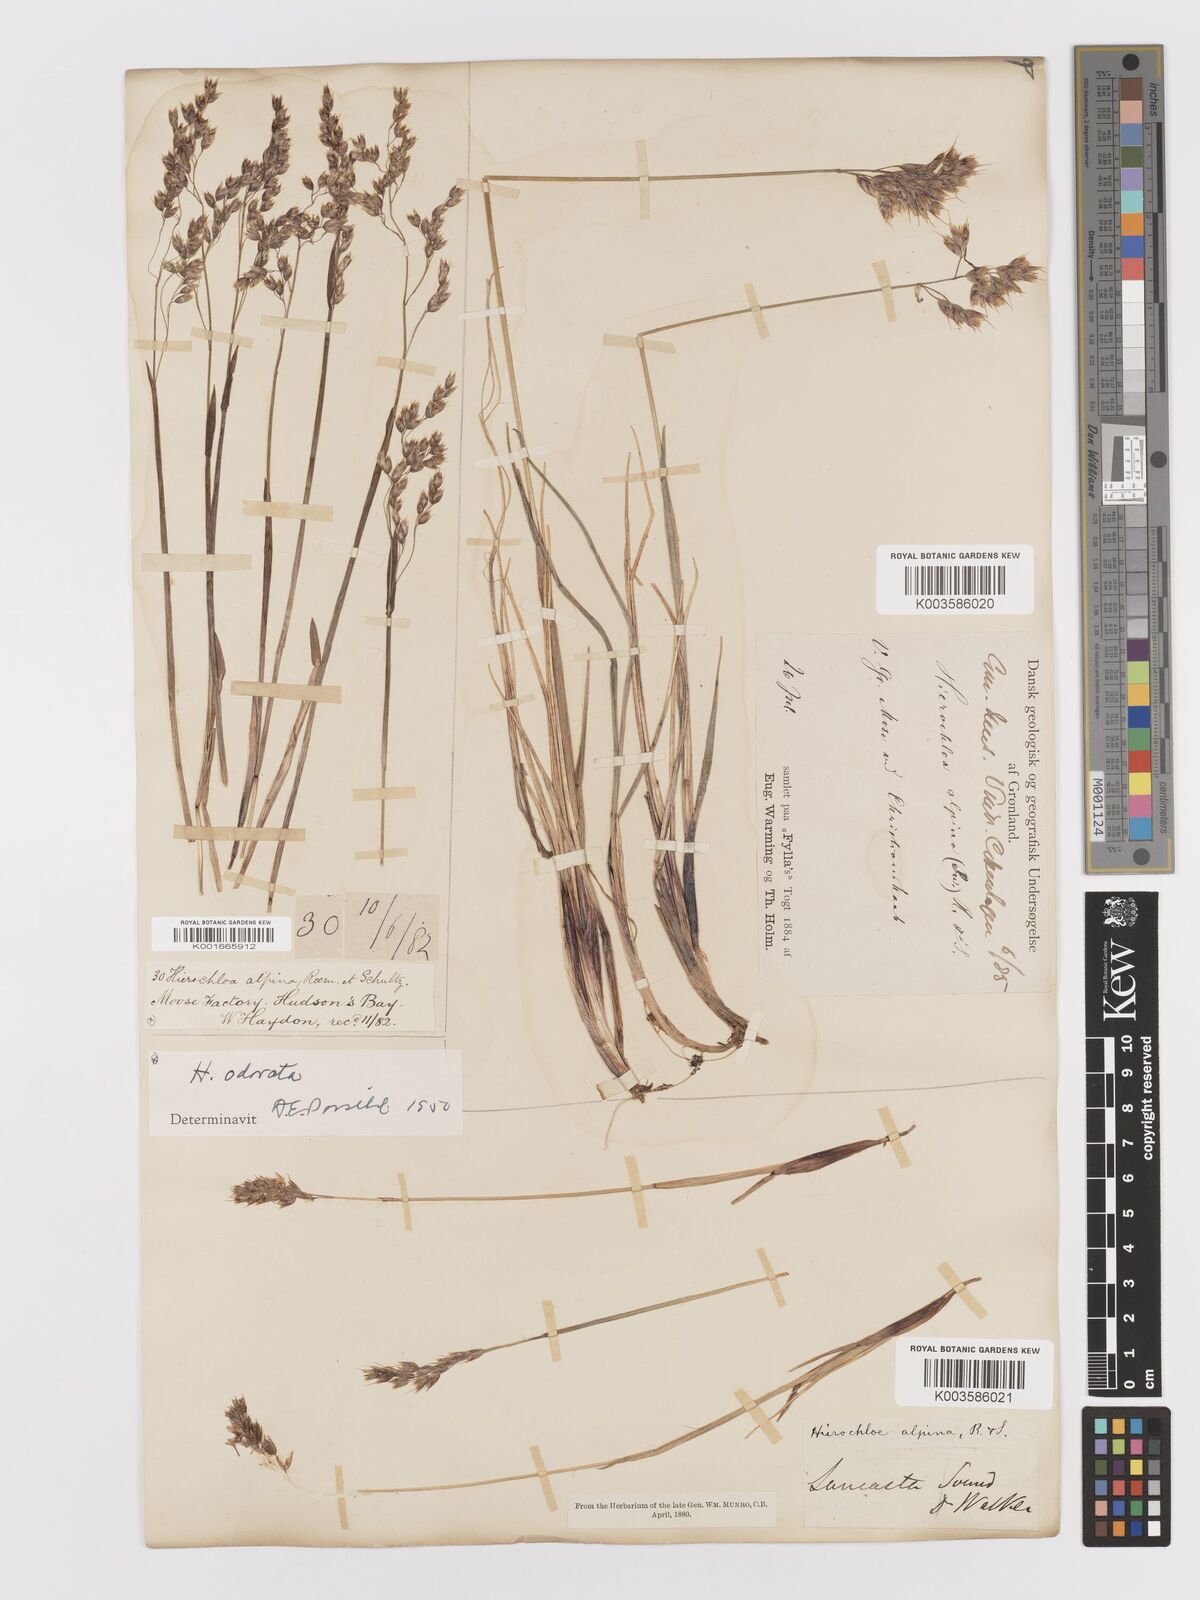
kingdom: Plantae
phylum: Tracheophyta
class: Liliopsida
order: Poales
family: Poaceae
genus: Anthoxanthum
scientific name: Anthoxanthum monticola
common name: Alpine sweetgrass
